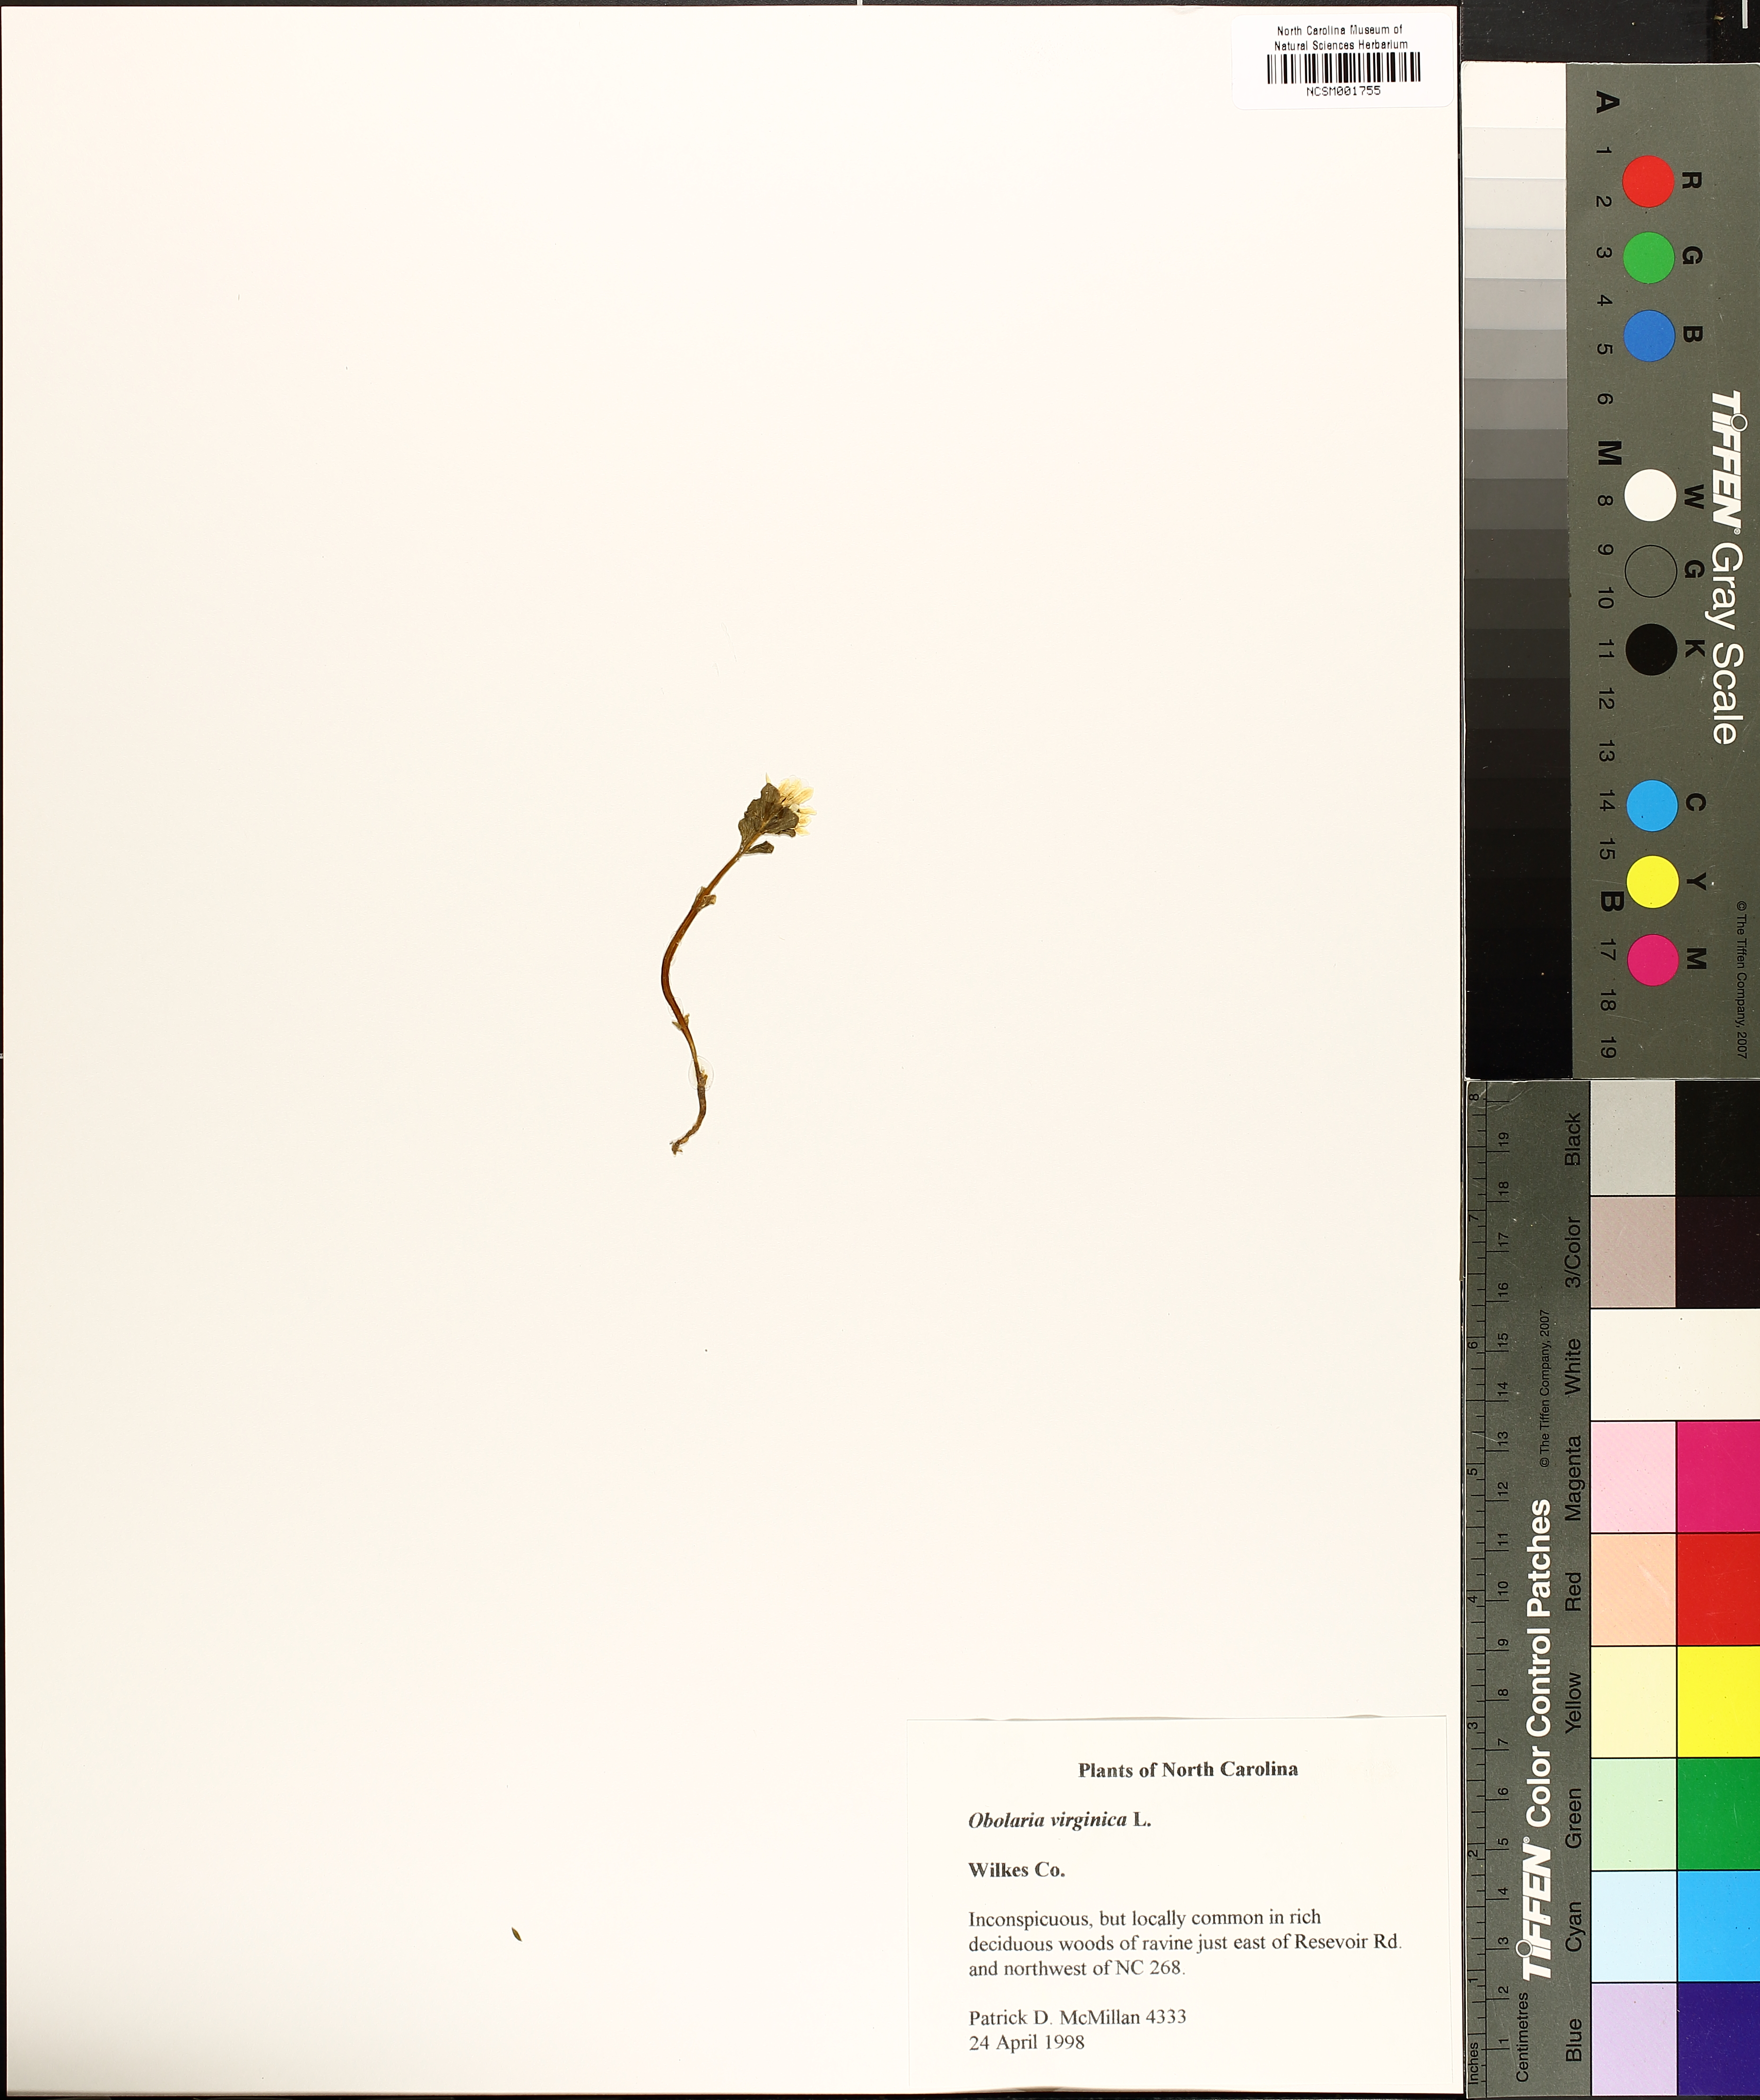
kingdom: Plantae
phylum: Tracheophyta
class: Magnoliopsida
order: Gentianales
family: Gentianaceae
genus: Obolaria
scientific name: Obolaria virginica
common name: Pennywort
